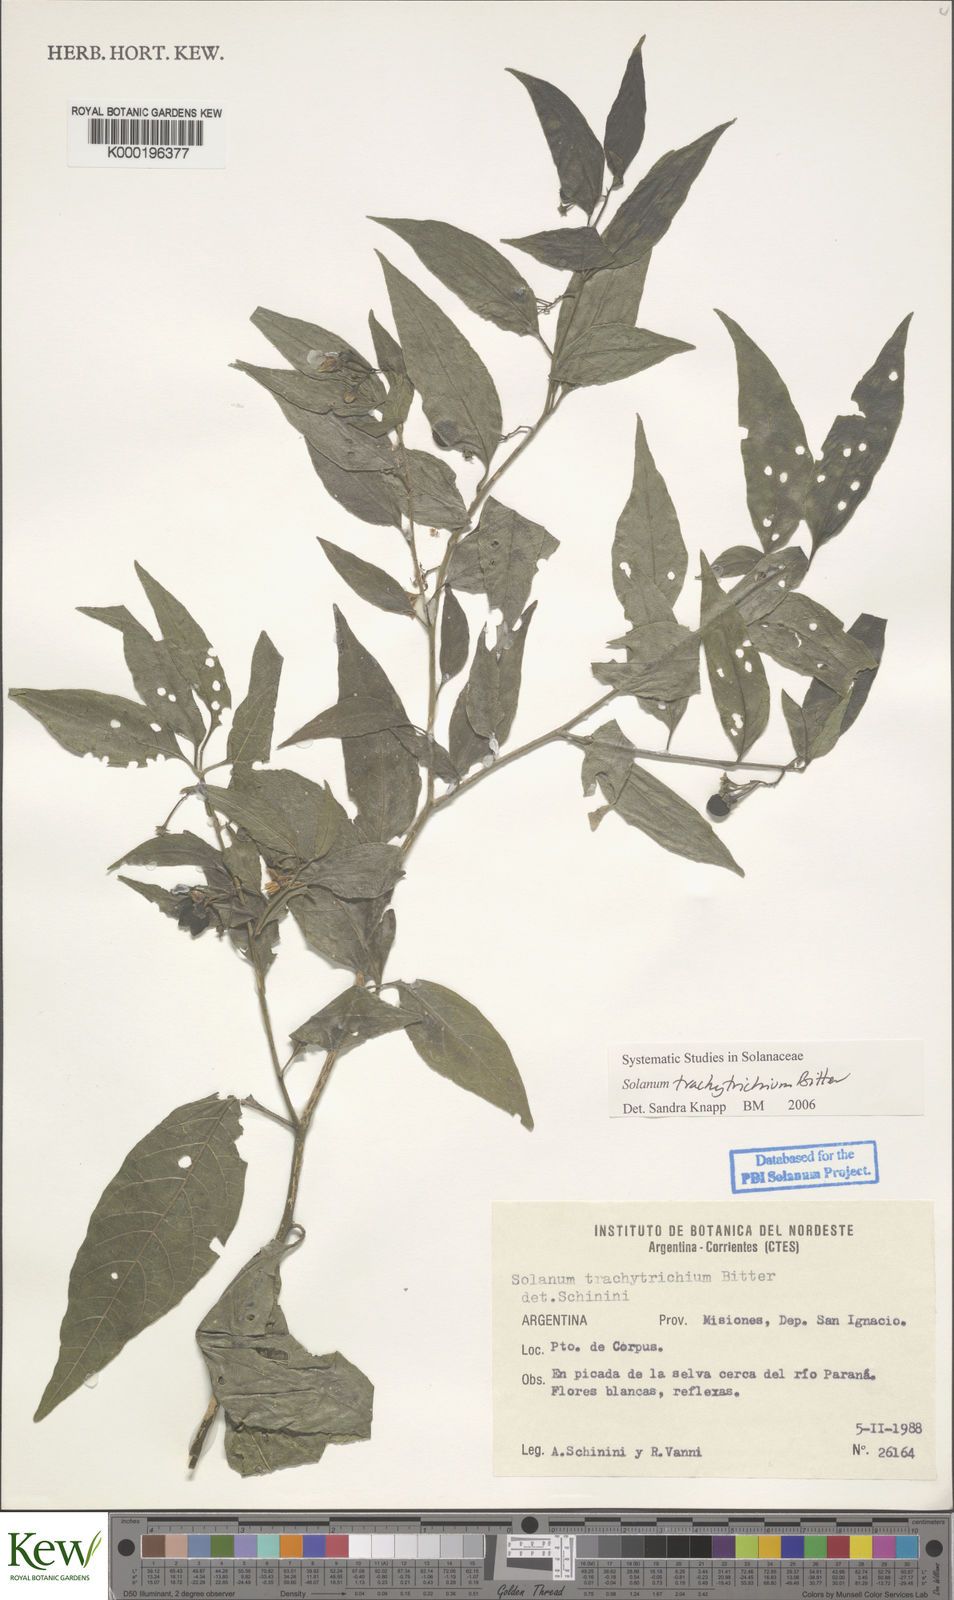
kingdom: Plantae
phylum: Tracheophyta
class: Magnoliopsida
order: Solanales
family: Solanaceae
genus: Solanum
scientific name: Solanum trachytrichium
